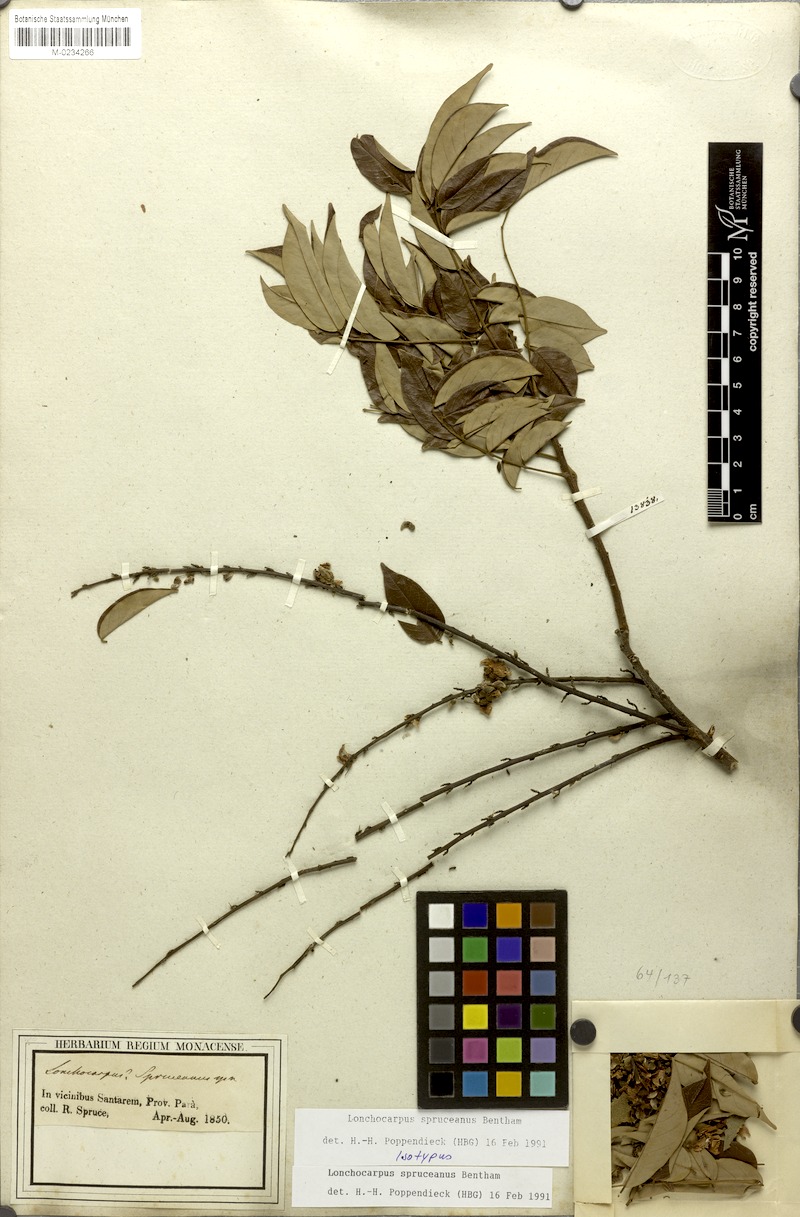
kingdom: Plantae
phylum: Tracheophyta
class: Magnoliopsida
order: Fabales
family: Fabaceae
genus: Deguelia
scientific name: Deguelia spruceana
